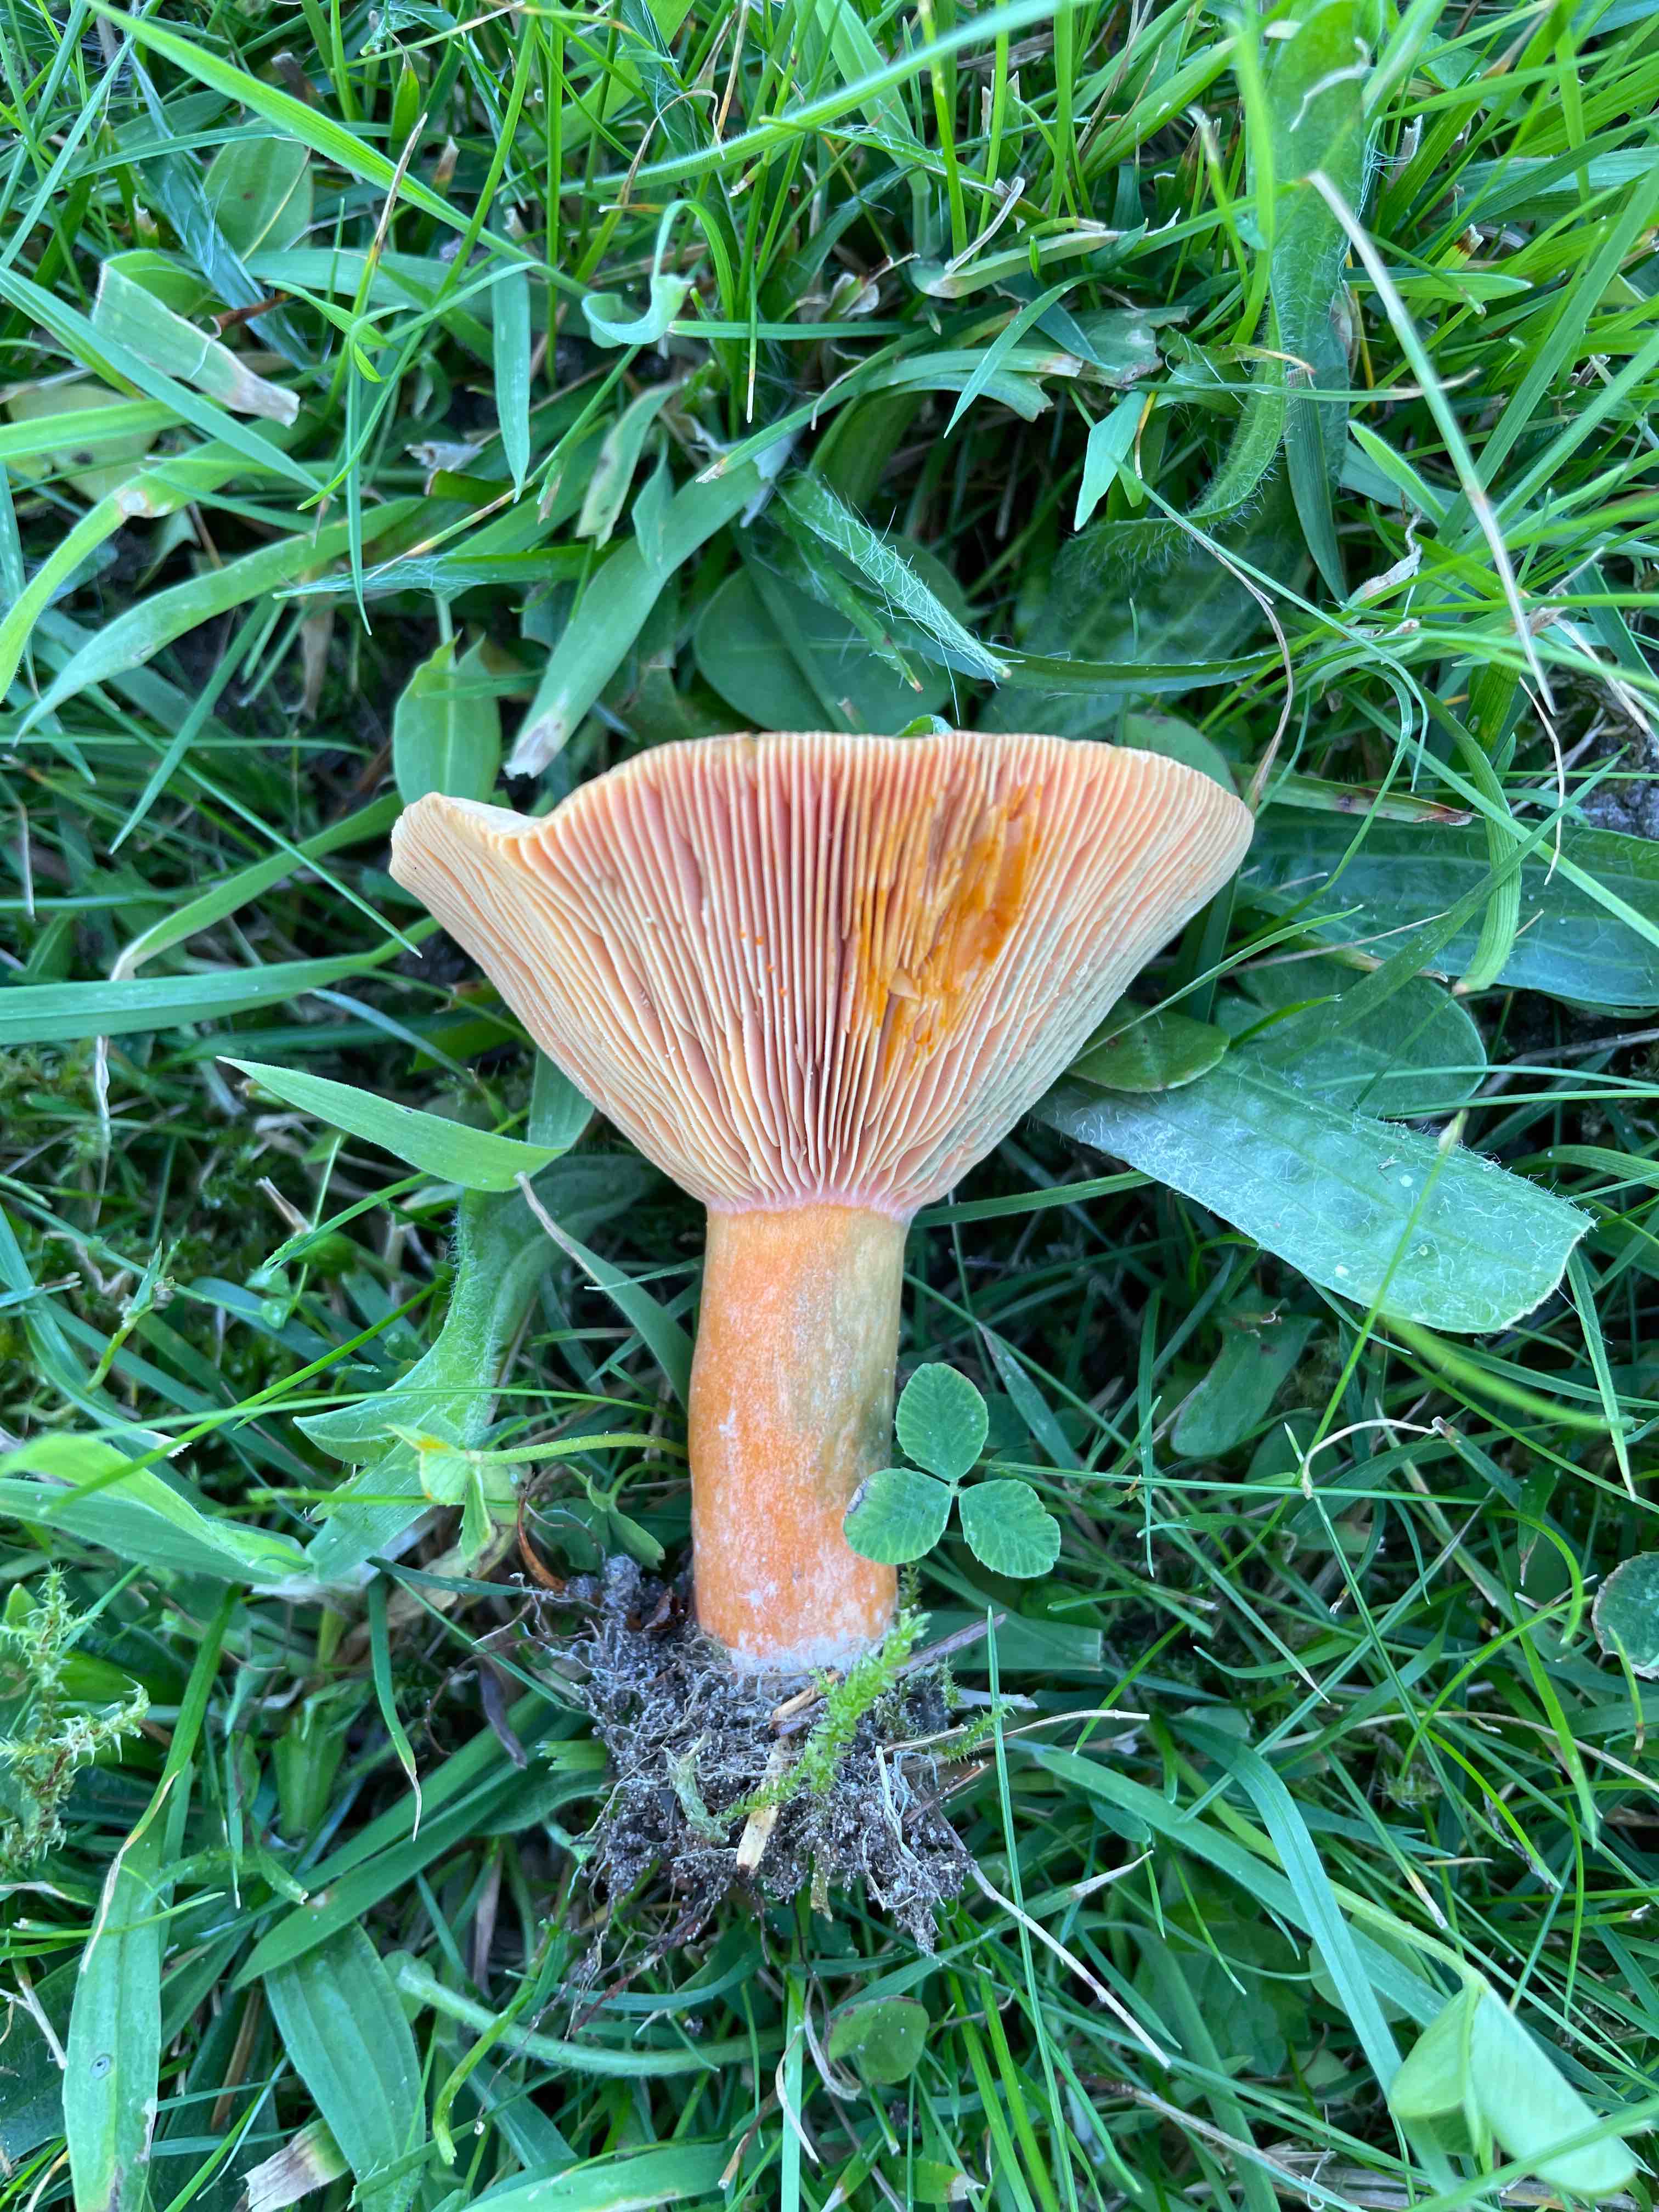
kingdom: Fungi
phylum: Basidiomycota
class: Agaricomycetes
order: Russulales
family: Russulaceae
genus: Lactarius
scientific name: Lactarius deterrimus
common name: gran-mælkehat
